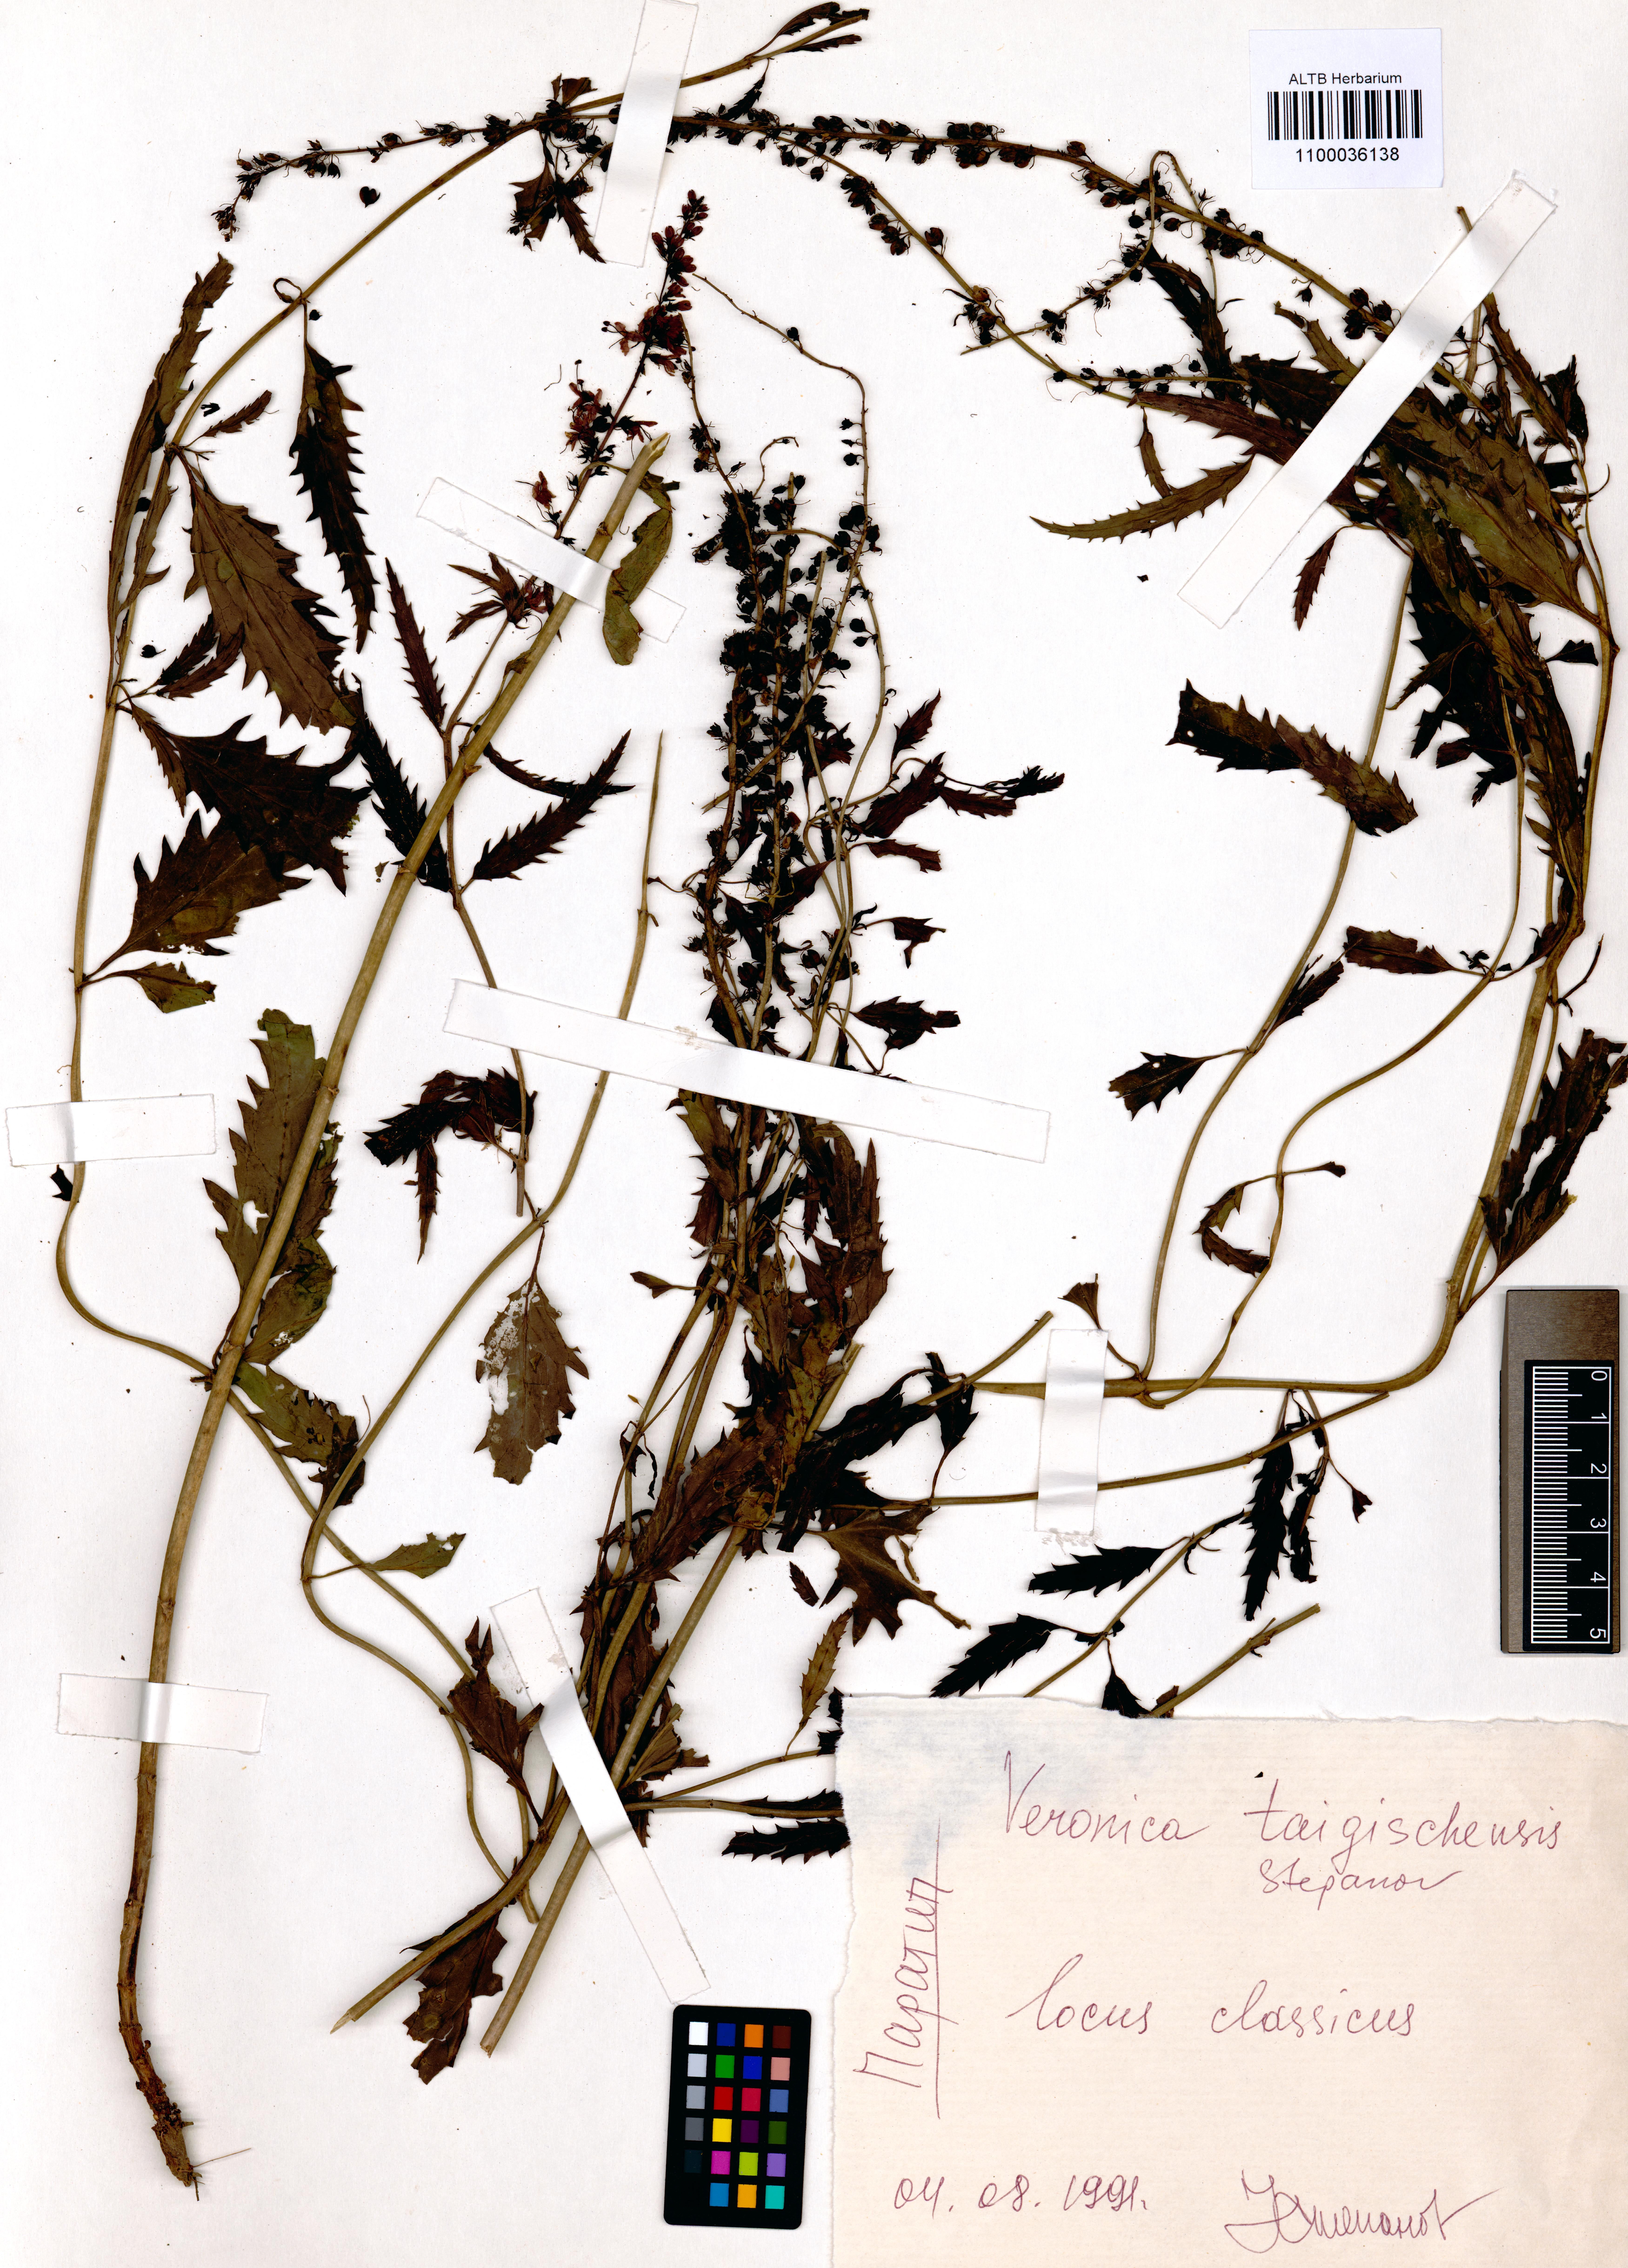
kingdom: Plantae
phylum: Tracheophyta
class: Magnoliopsida
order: Lamiales
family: Plantaginaceae
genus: Veronica
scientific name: Veronica longifolia
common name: Garden speedwell
